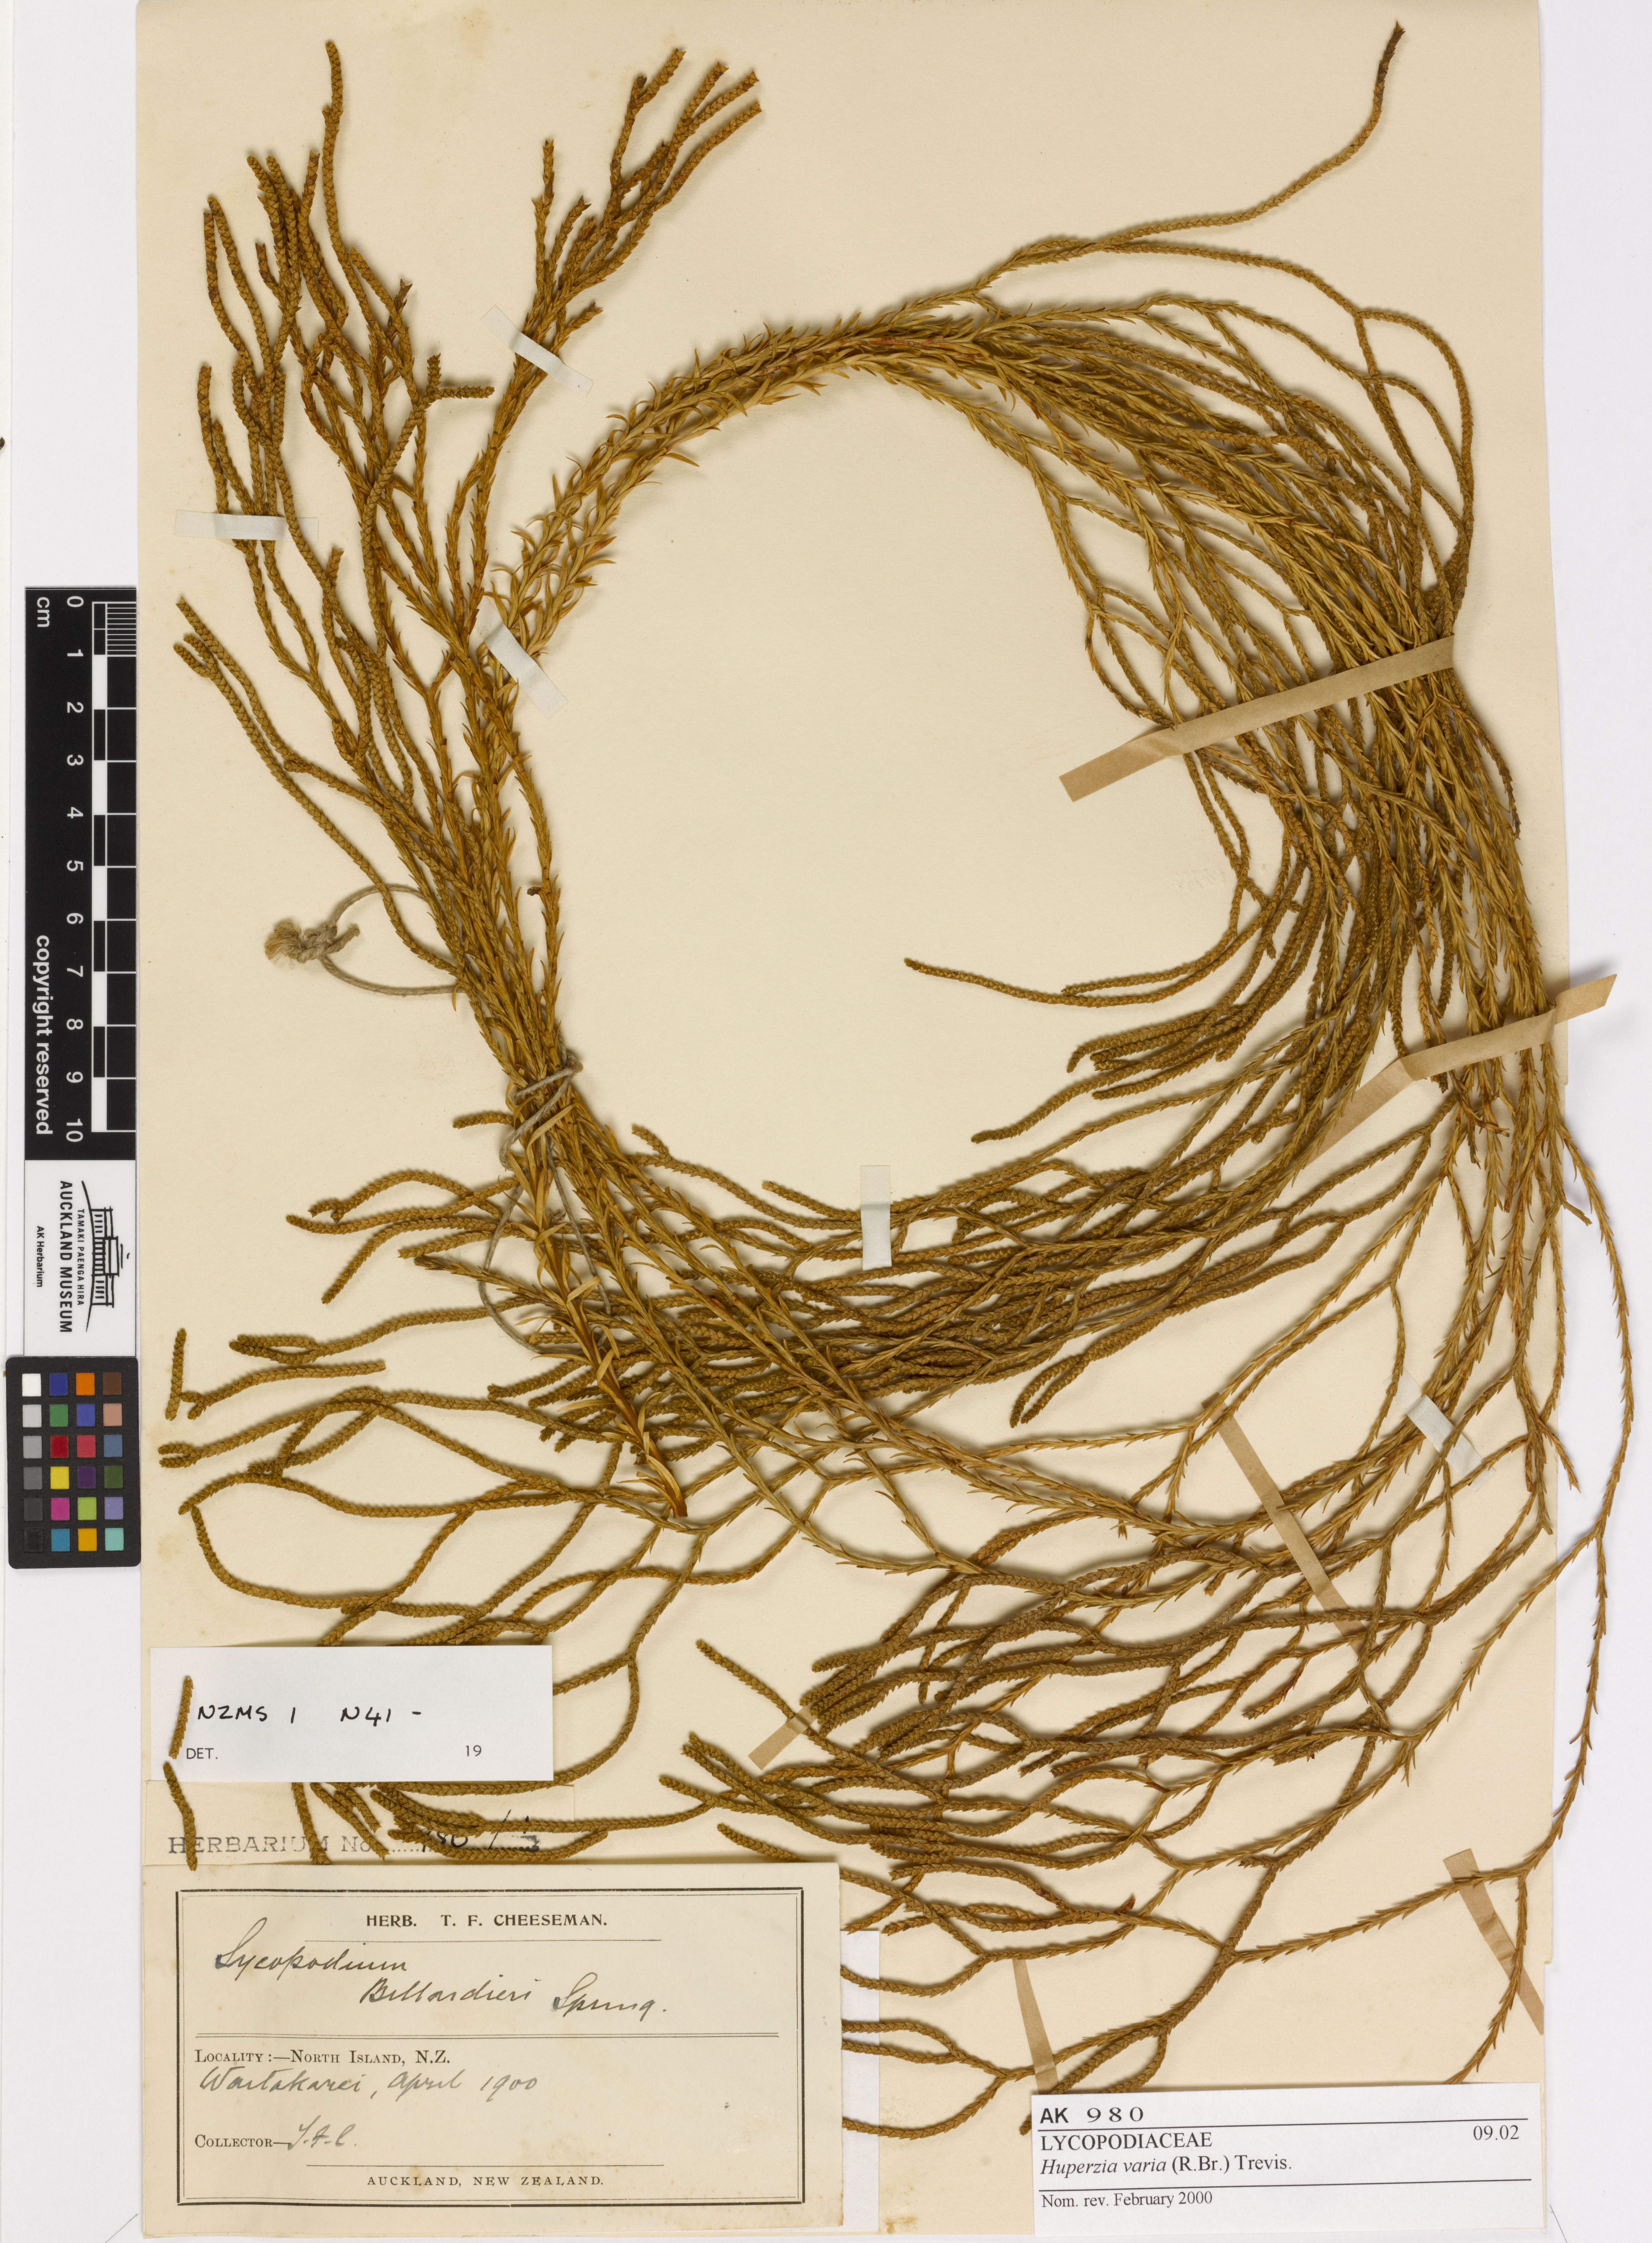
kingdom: Plantae
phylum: Tracheophyta
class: Lycopodiopsida
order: Lycopodiales
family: Lycopodiaceae
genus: Phlegmariurus
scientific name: Phlegmariurus billardierei
